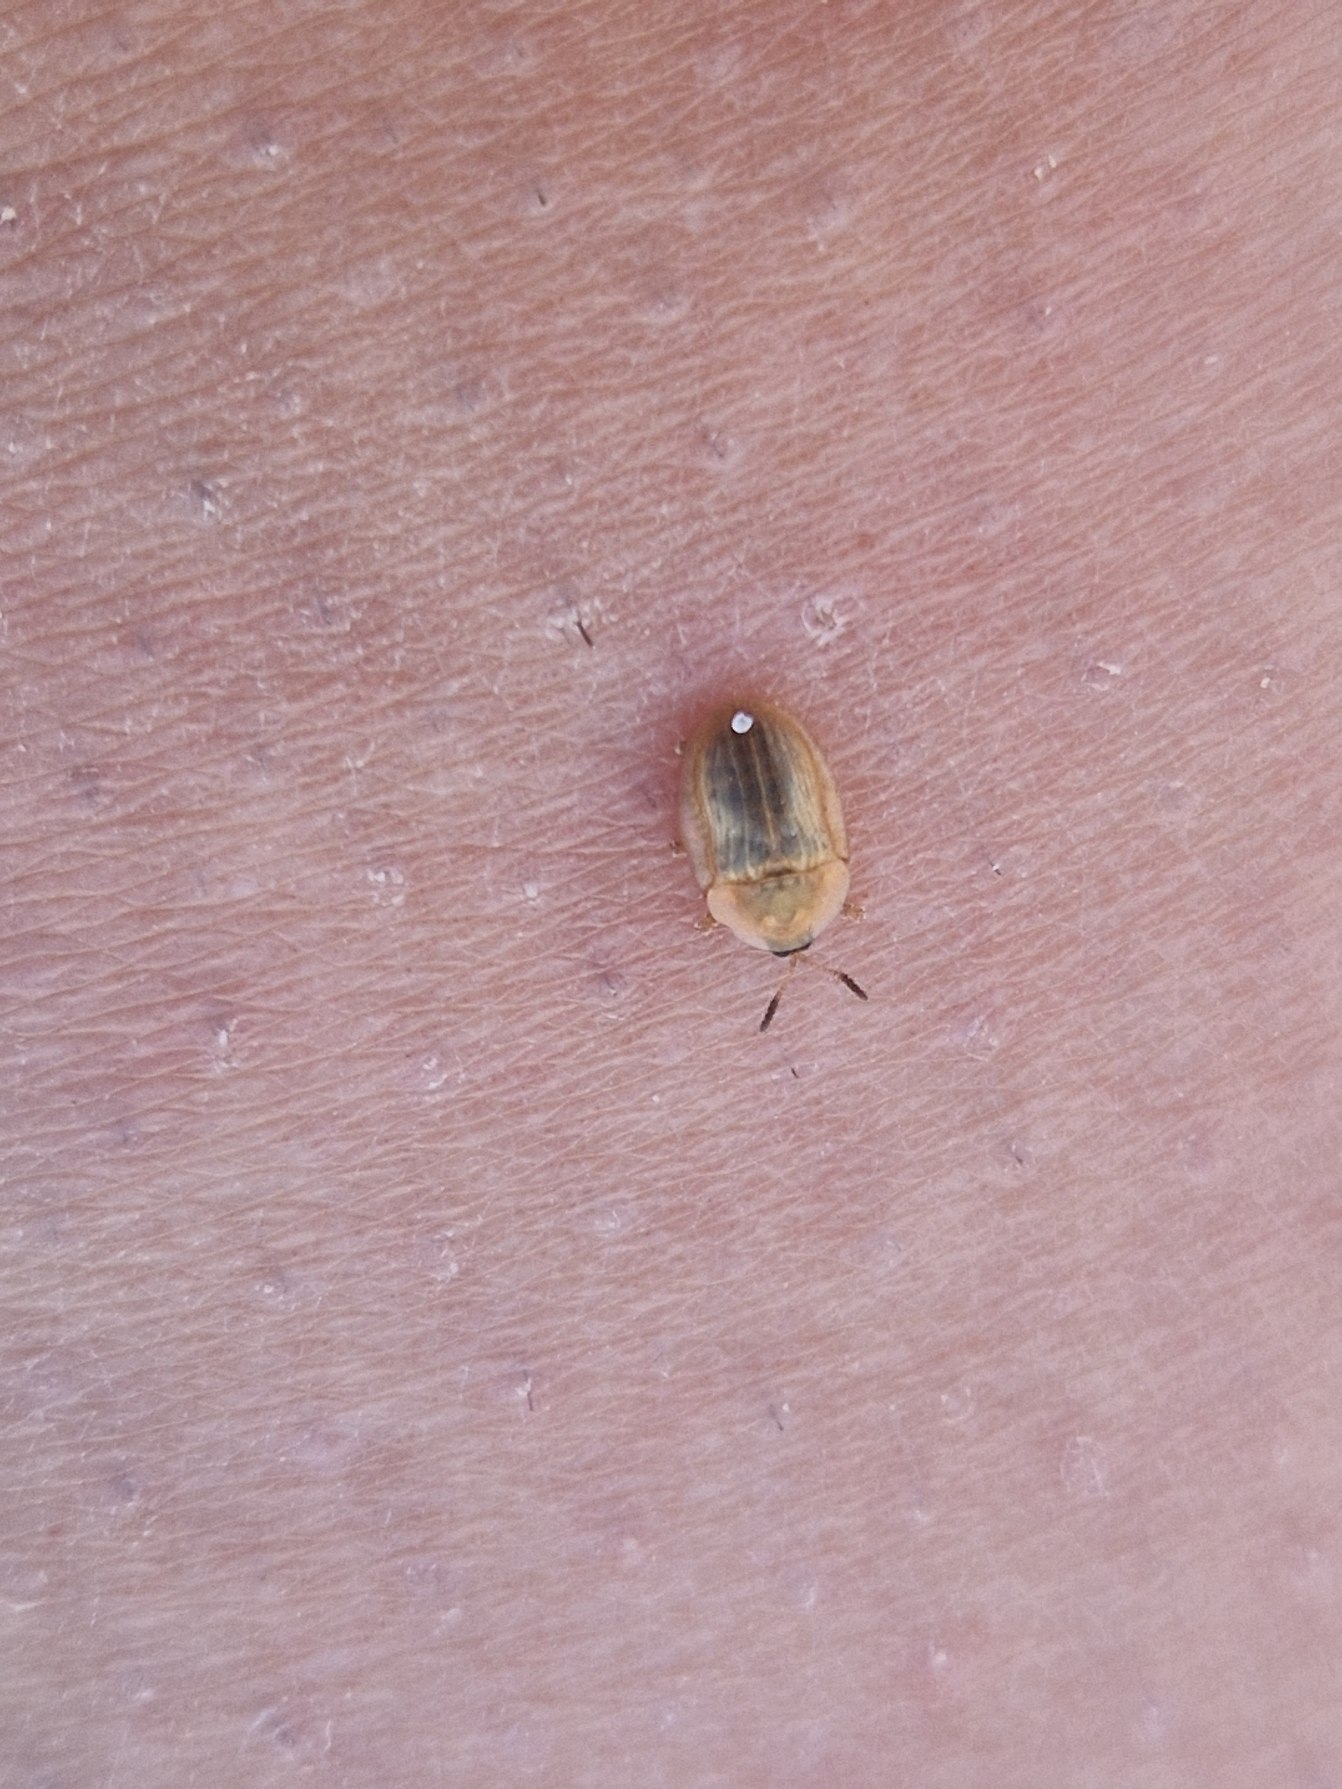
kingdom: Animalia
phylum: Arthropoda
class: Insecta
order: Coleoptera
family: Chrysomelidae
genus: Cassida
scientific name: Cassida flaveola
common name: Gulbrun skjoldbille
